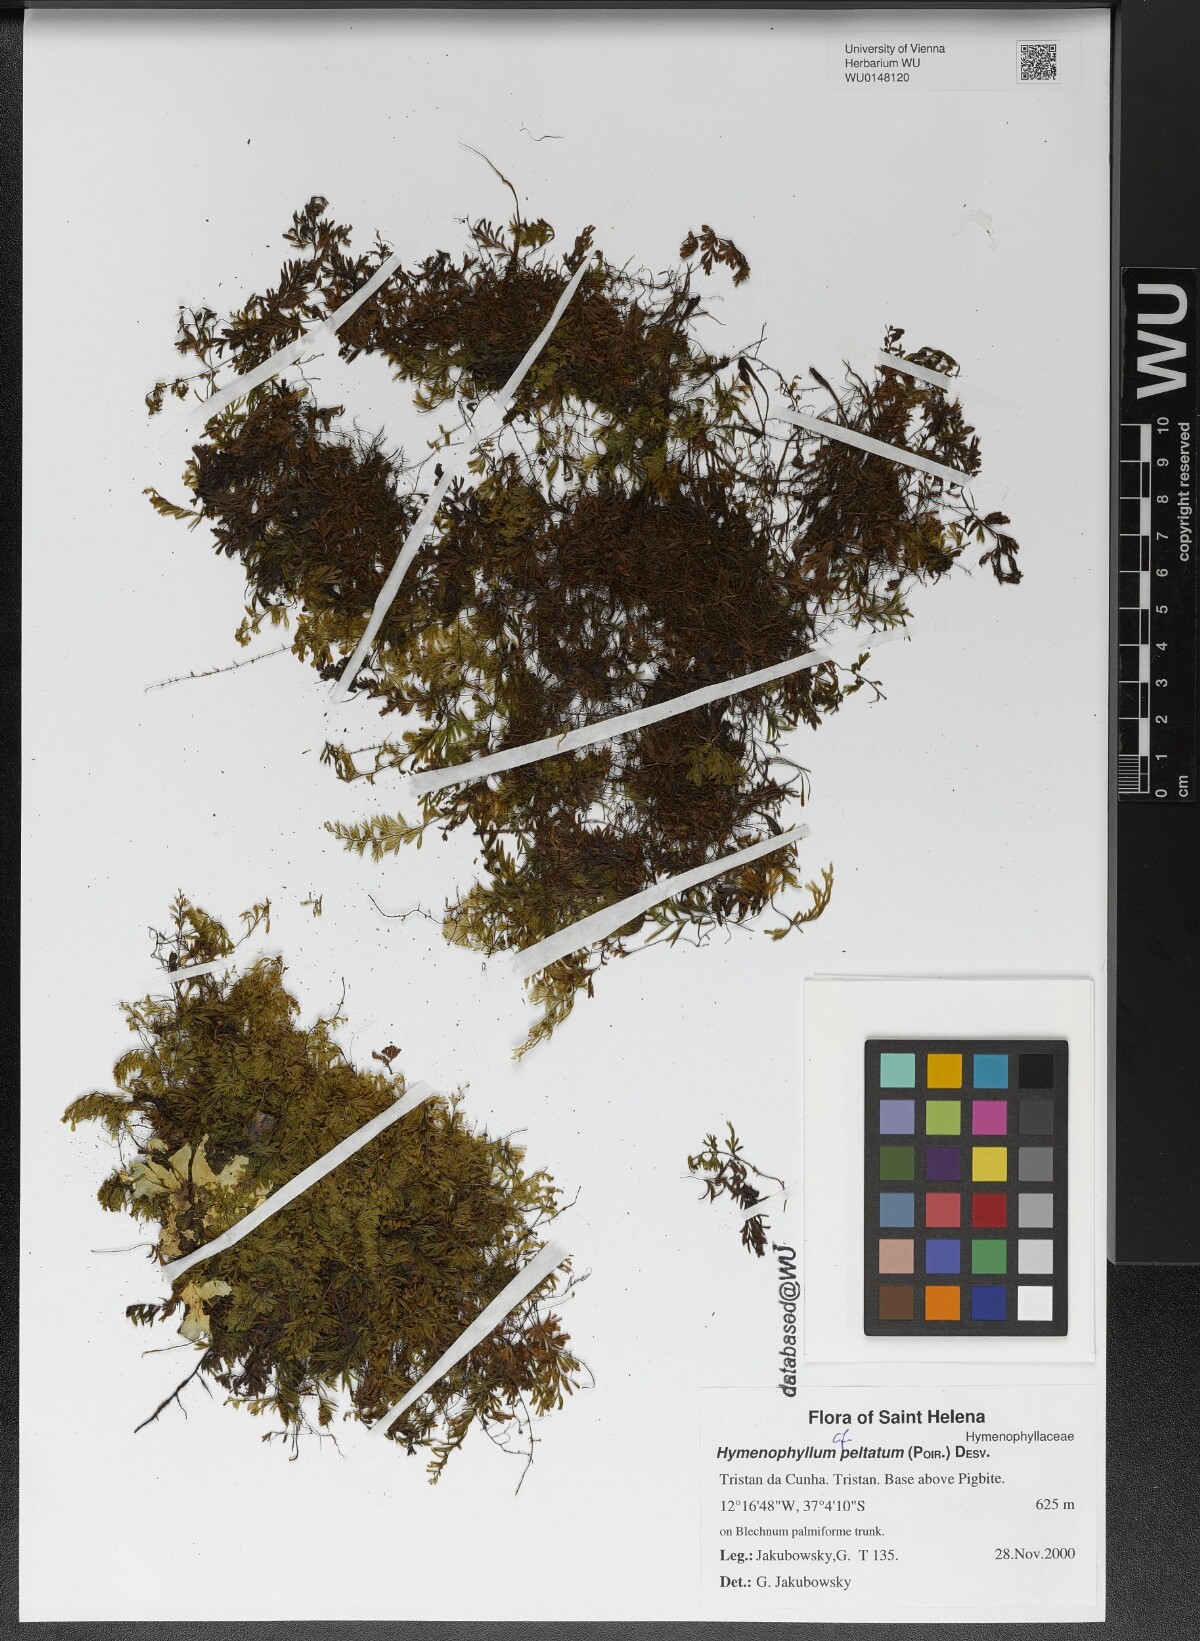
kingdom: Plantae
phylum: Tracheophyta
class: Polypodiopsida
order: Hymenophyllales
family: Hymenophyllaceae
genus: Hymenophyllum
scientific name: Hymenophyllum peltatum
